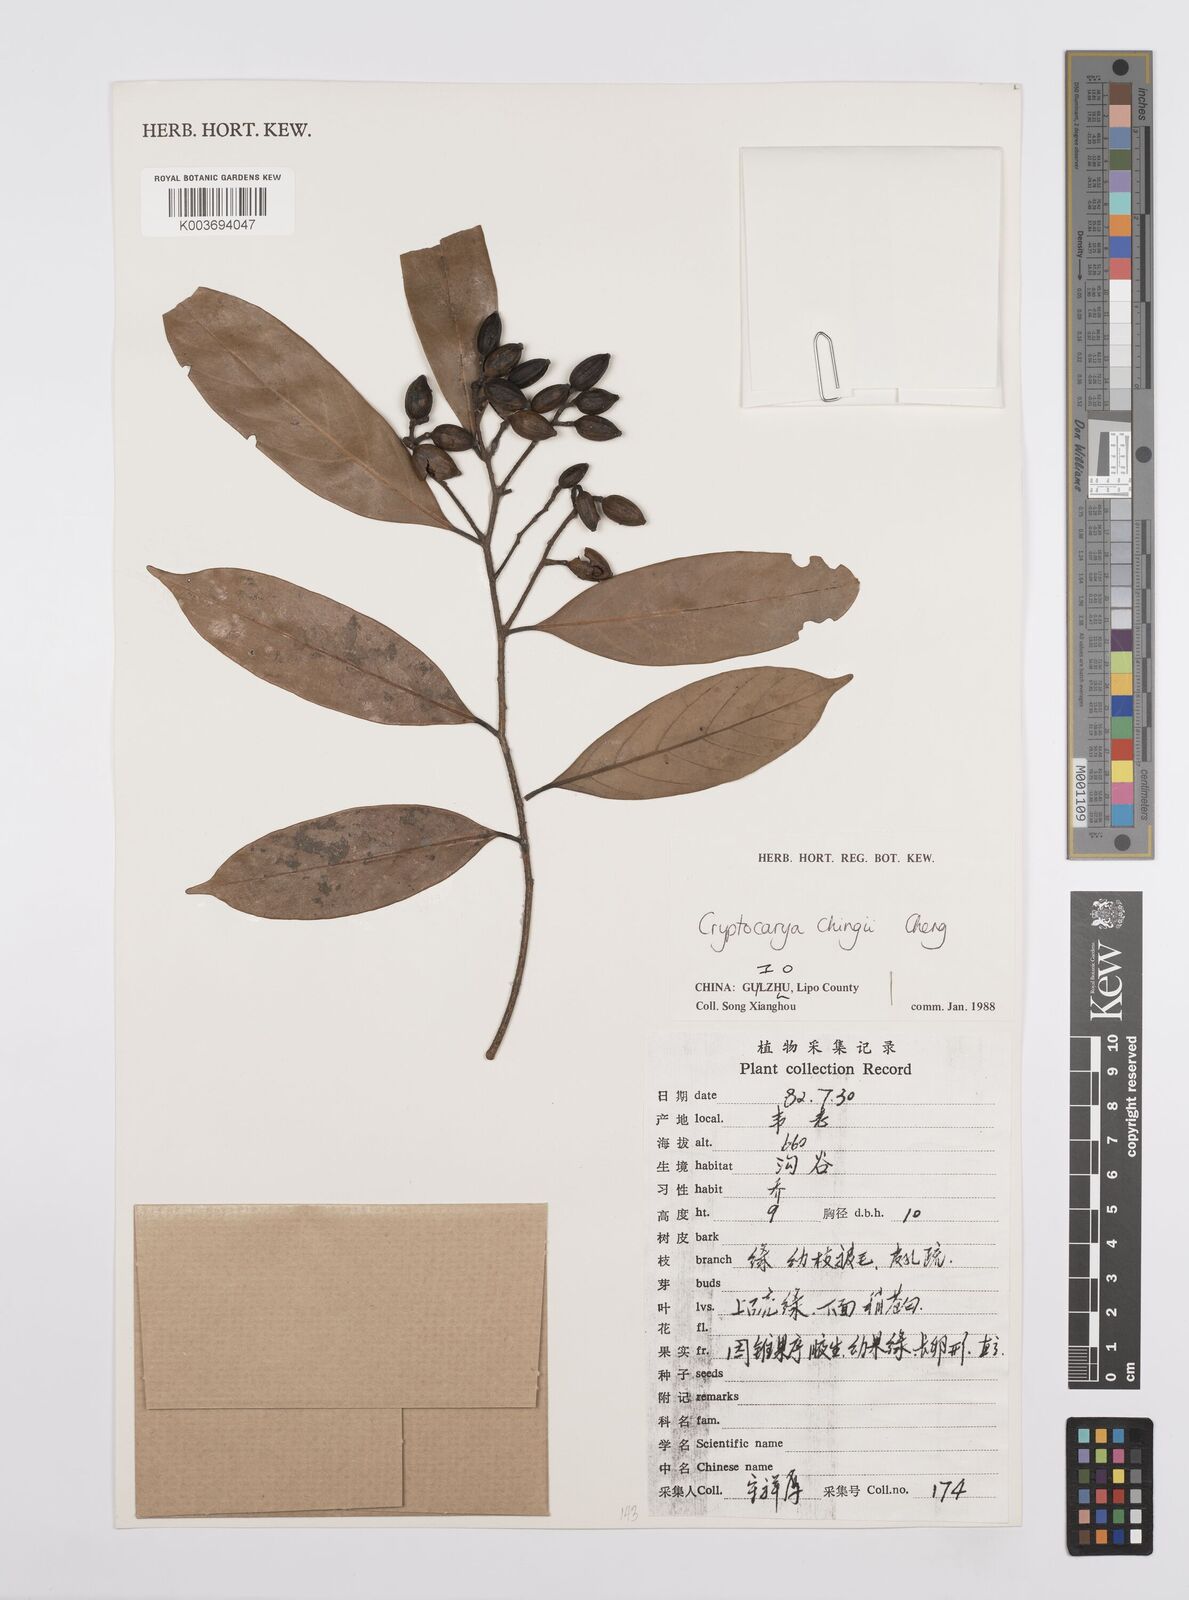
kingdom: Plantae
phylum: Tracheophyta
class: Magnoliopsida
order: Laurales
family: Lauraceae
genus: Cryptocarya
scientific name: Cryptocarya chingii
